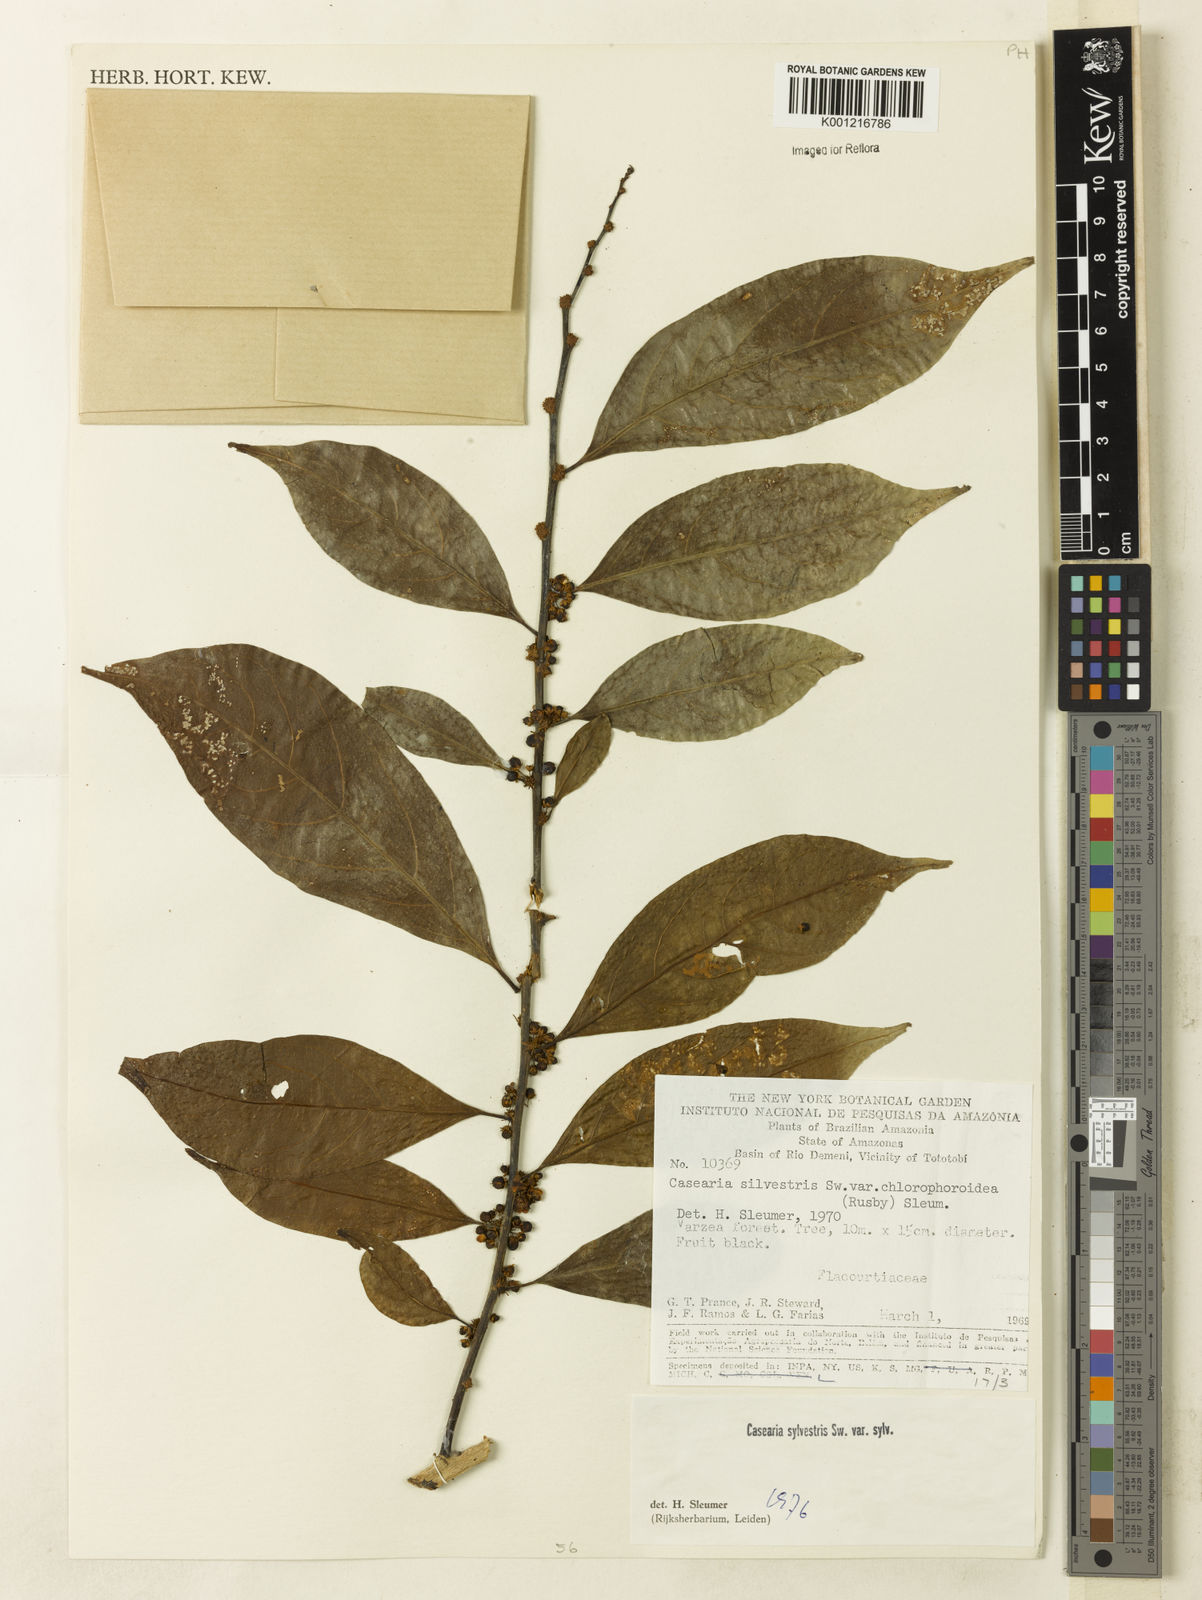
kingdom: Plantae
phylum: Tracheophyta
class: Magnoliopsida
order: Malpighiales
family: Salicaceae
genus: Casearia
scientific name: Casearia sylvestris
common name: Wild sage
